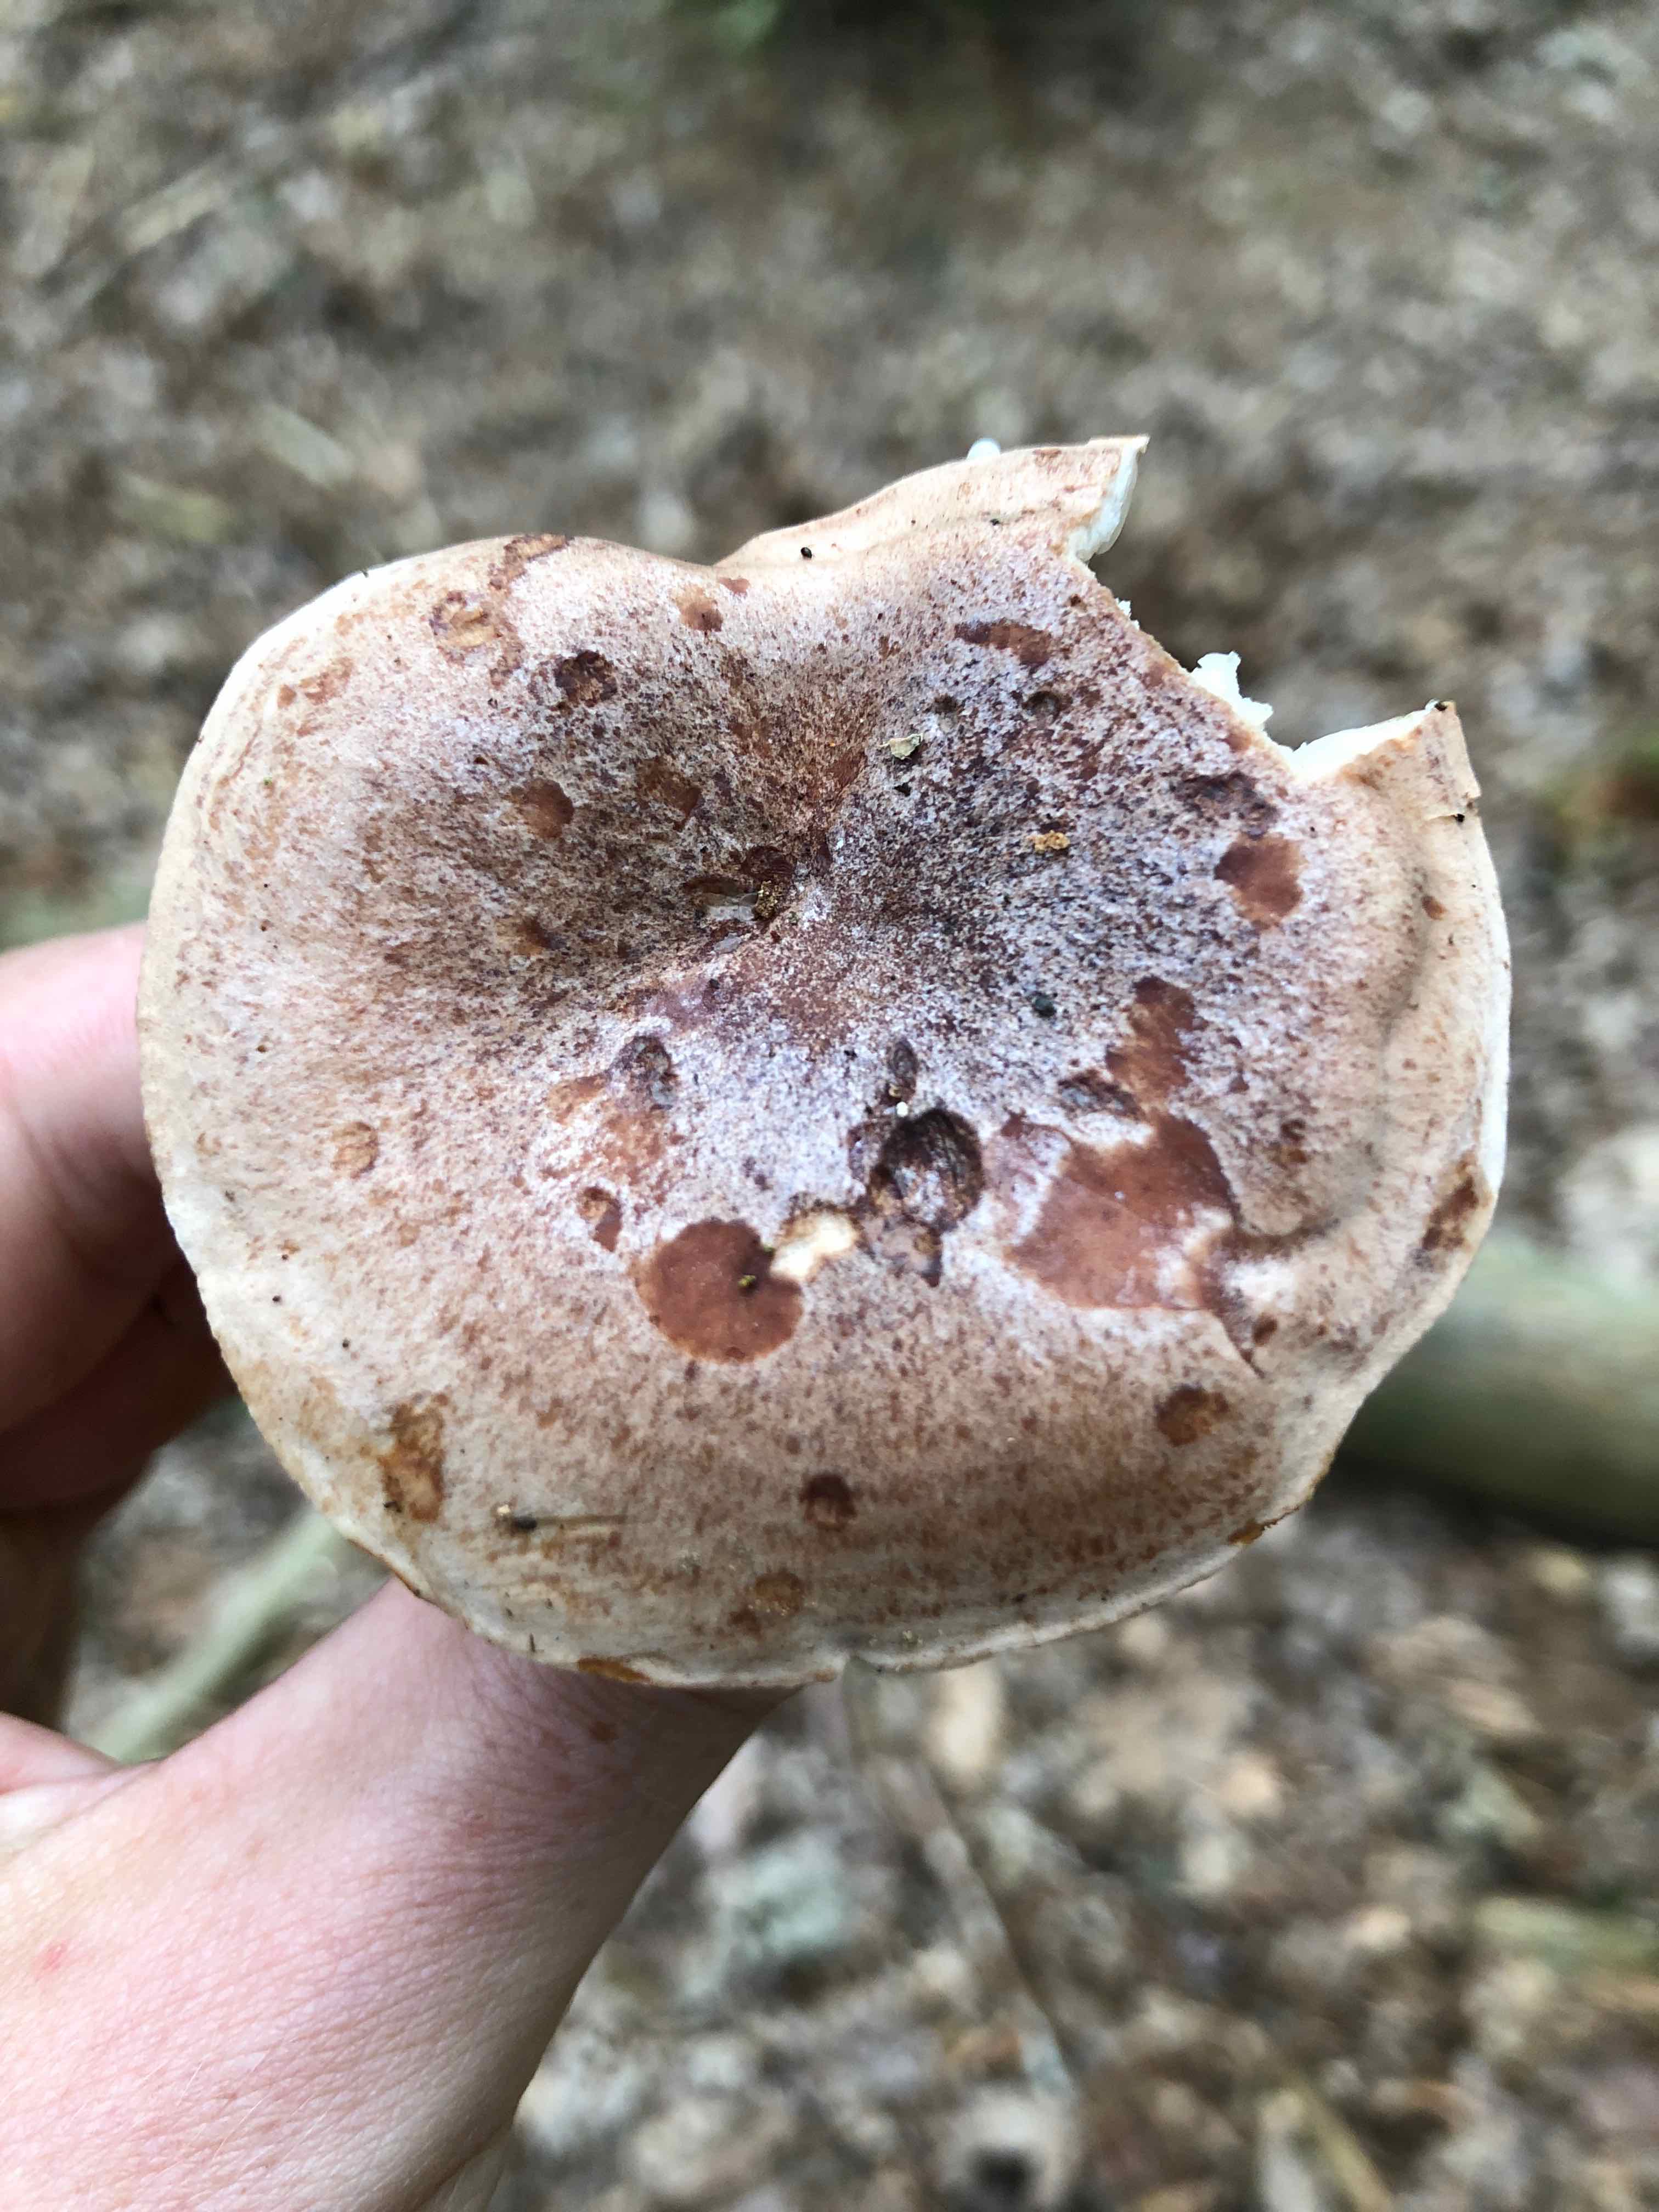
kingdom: Fungi
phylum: Basidiomycota
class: Agaricomycetes
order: Russulales
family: Russulaceae
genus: Lactarius
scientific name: Lactarius quietus
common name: ege-mælkehat
